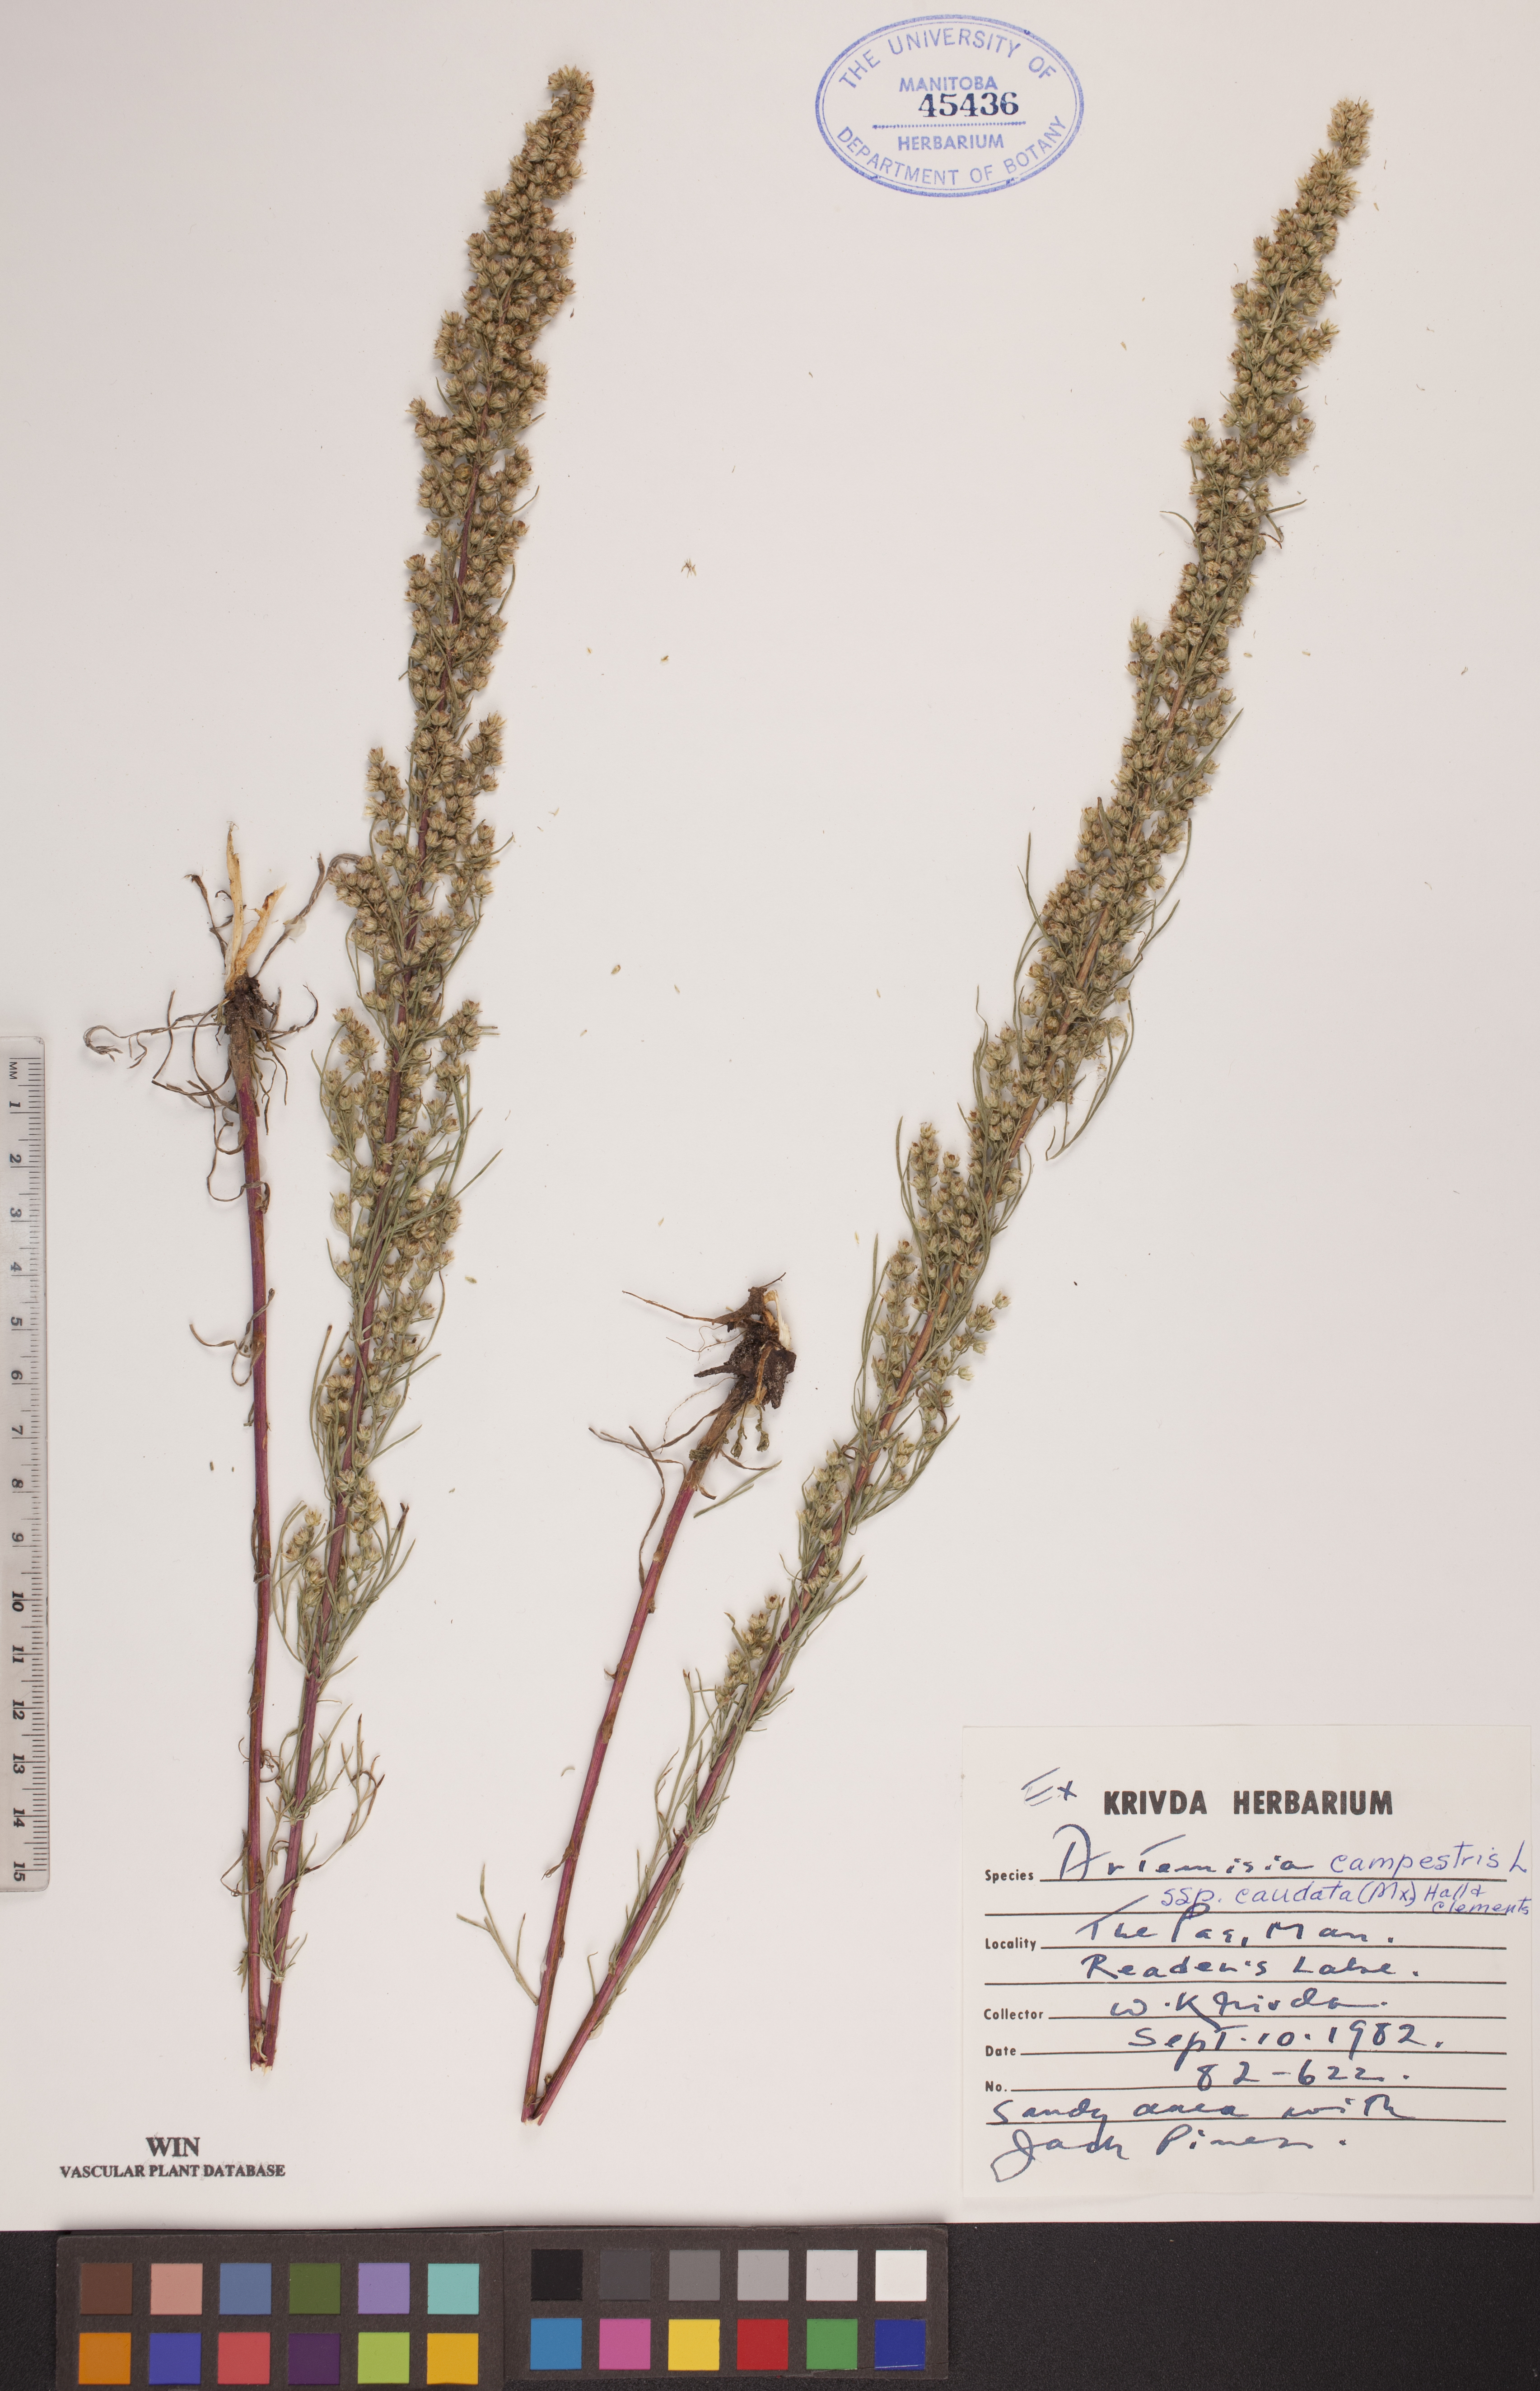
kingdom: Plantae
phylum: Tracheophyta
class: Magnoliopsida
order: Asterales
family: Asteraceae
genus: Artemisia
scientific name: Artemisia campestris
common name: Field wormwood
